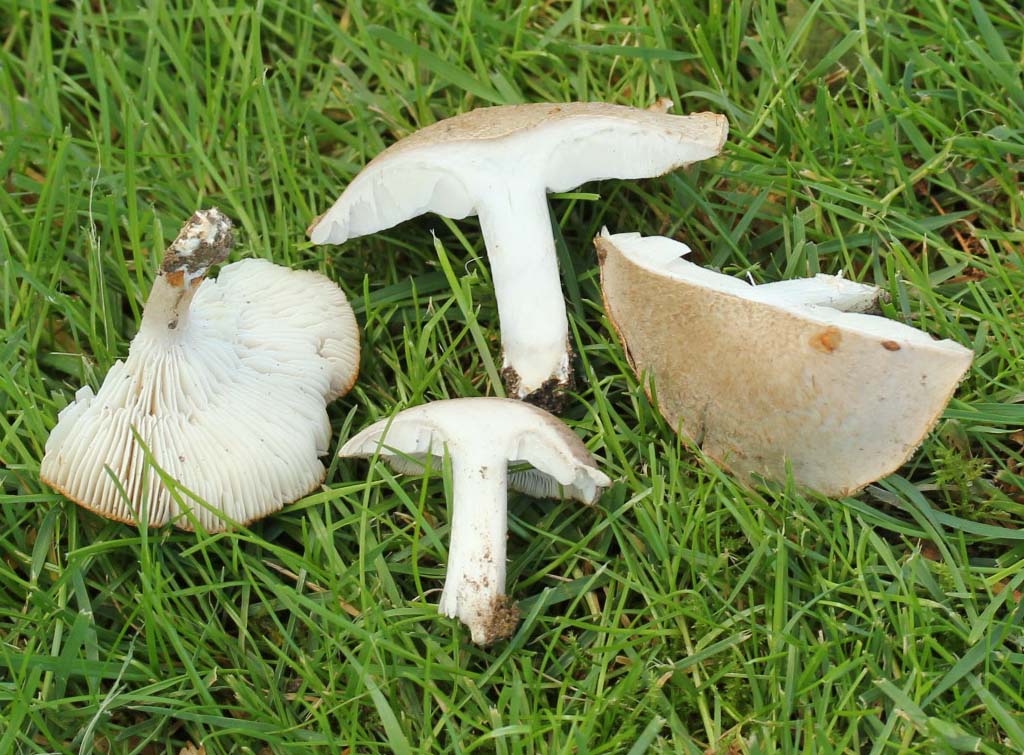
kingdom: Fungi
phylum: Basidiomycota
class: Agaricomycetes
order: Agaricales
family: Tricholomataceae
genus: Tricholoma
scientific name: Tricholoma argyraceum
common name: spids ridderhat
